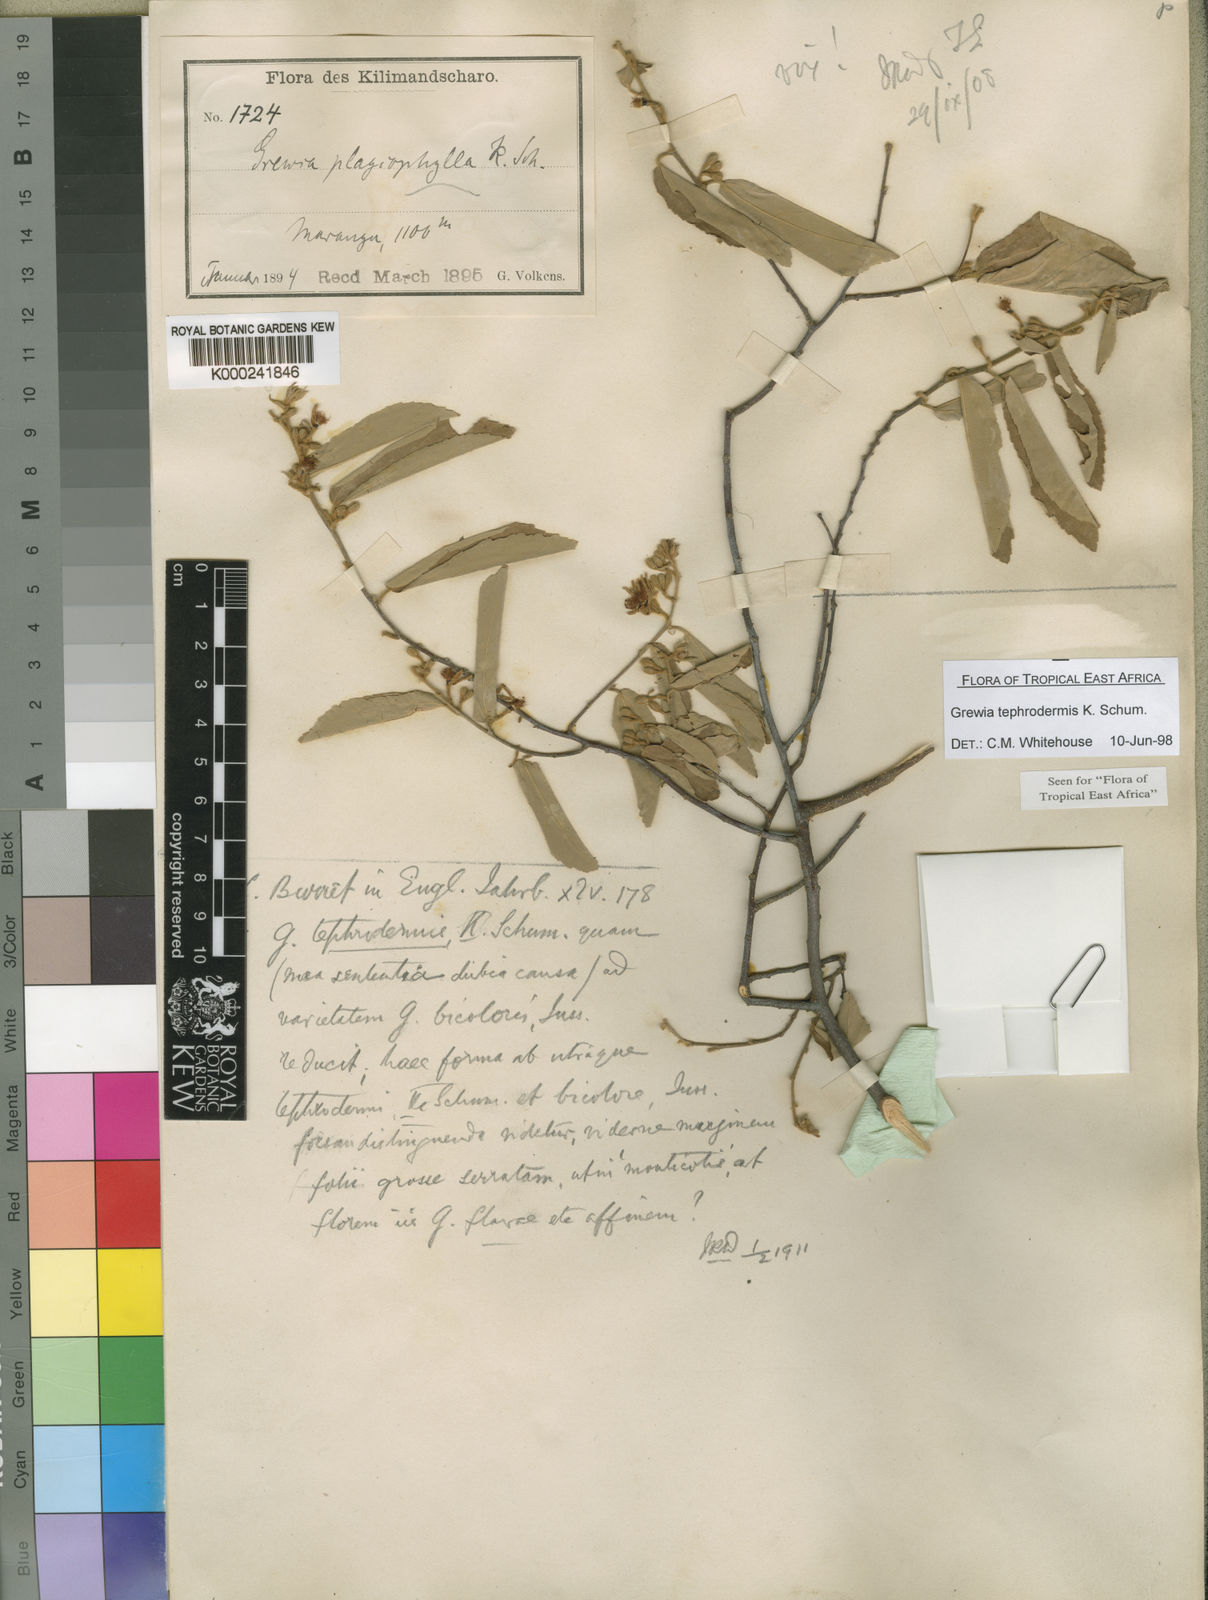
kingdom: Plantae
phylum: Tracheophyta
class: Magnoliopsida
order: Malvales
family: Malvaceae
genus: Grewia
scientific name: Grewia tephrodermis
